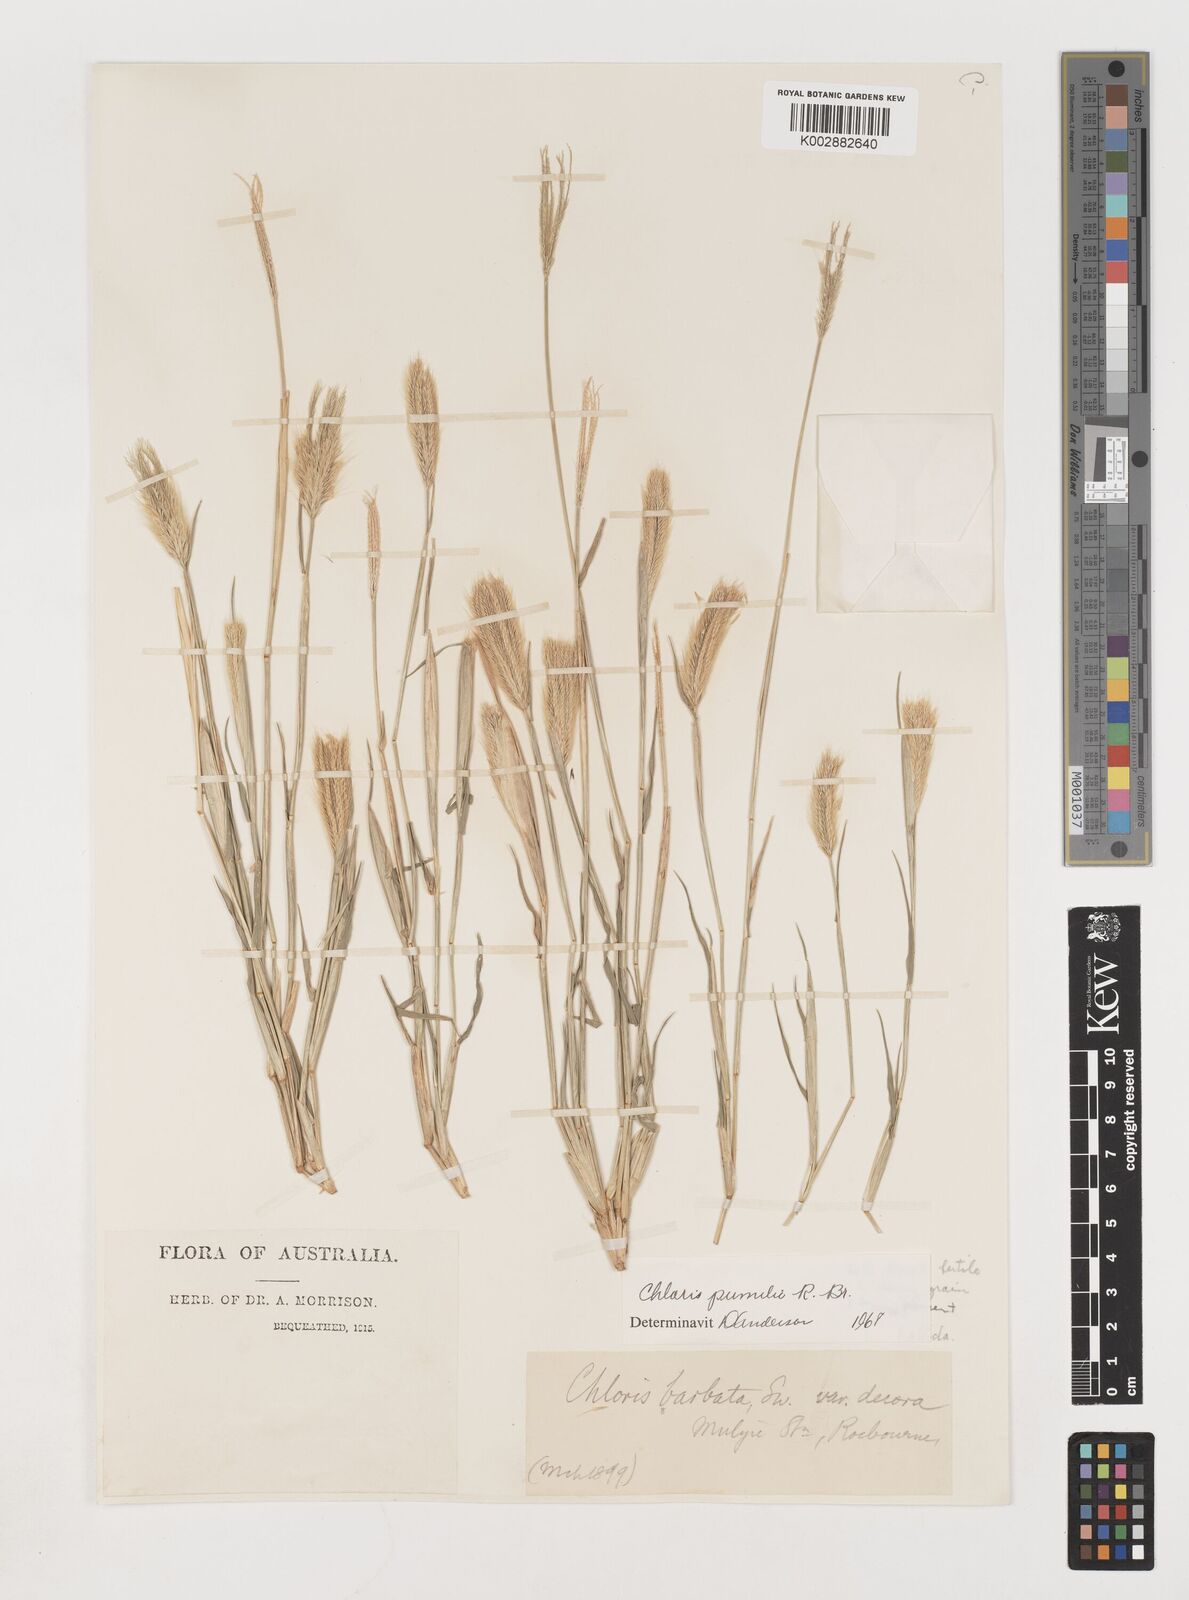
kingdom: Plantae
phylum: Tracheophyta
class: Liliopsida
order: Poales
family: Poaceae
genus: Chloris
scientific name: Chloris pumilio
